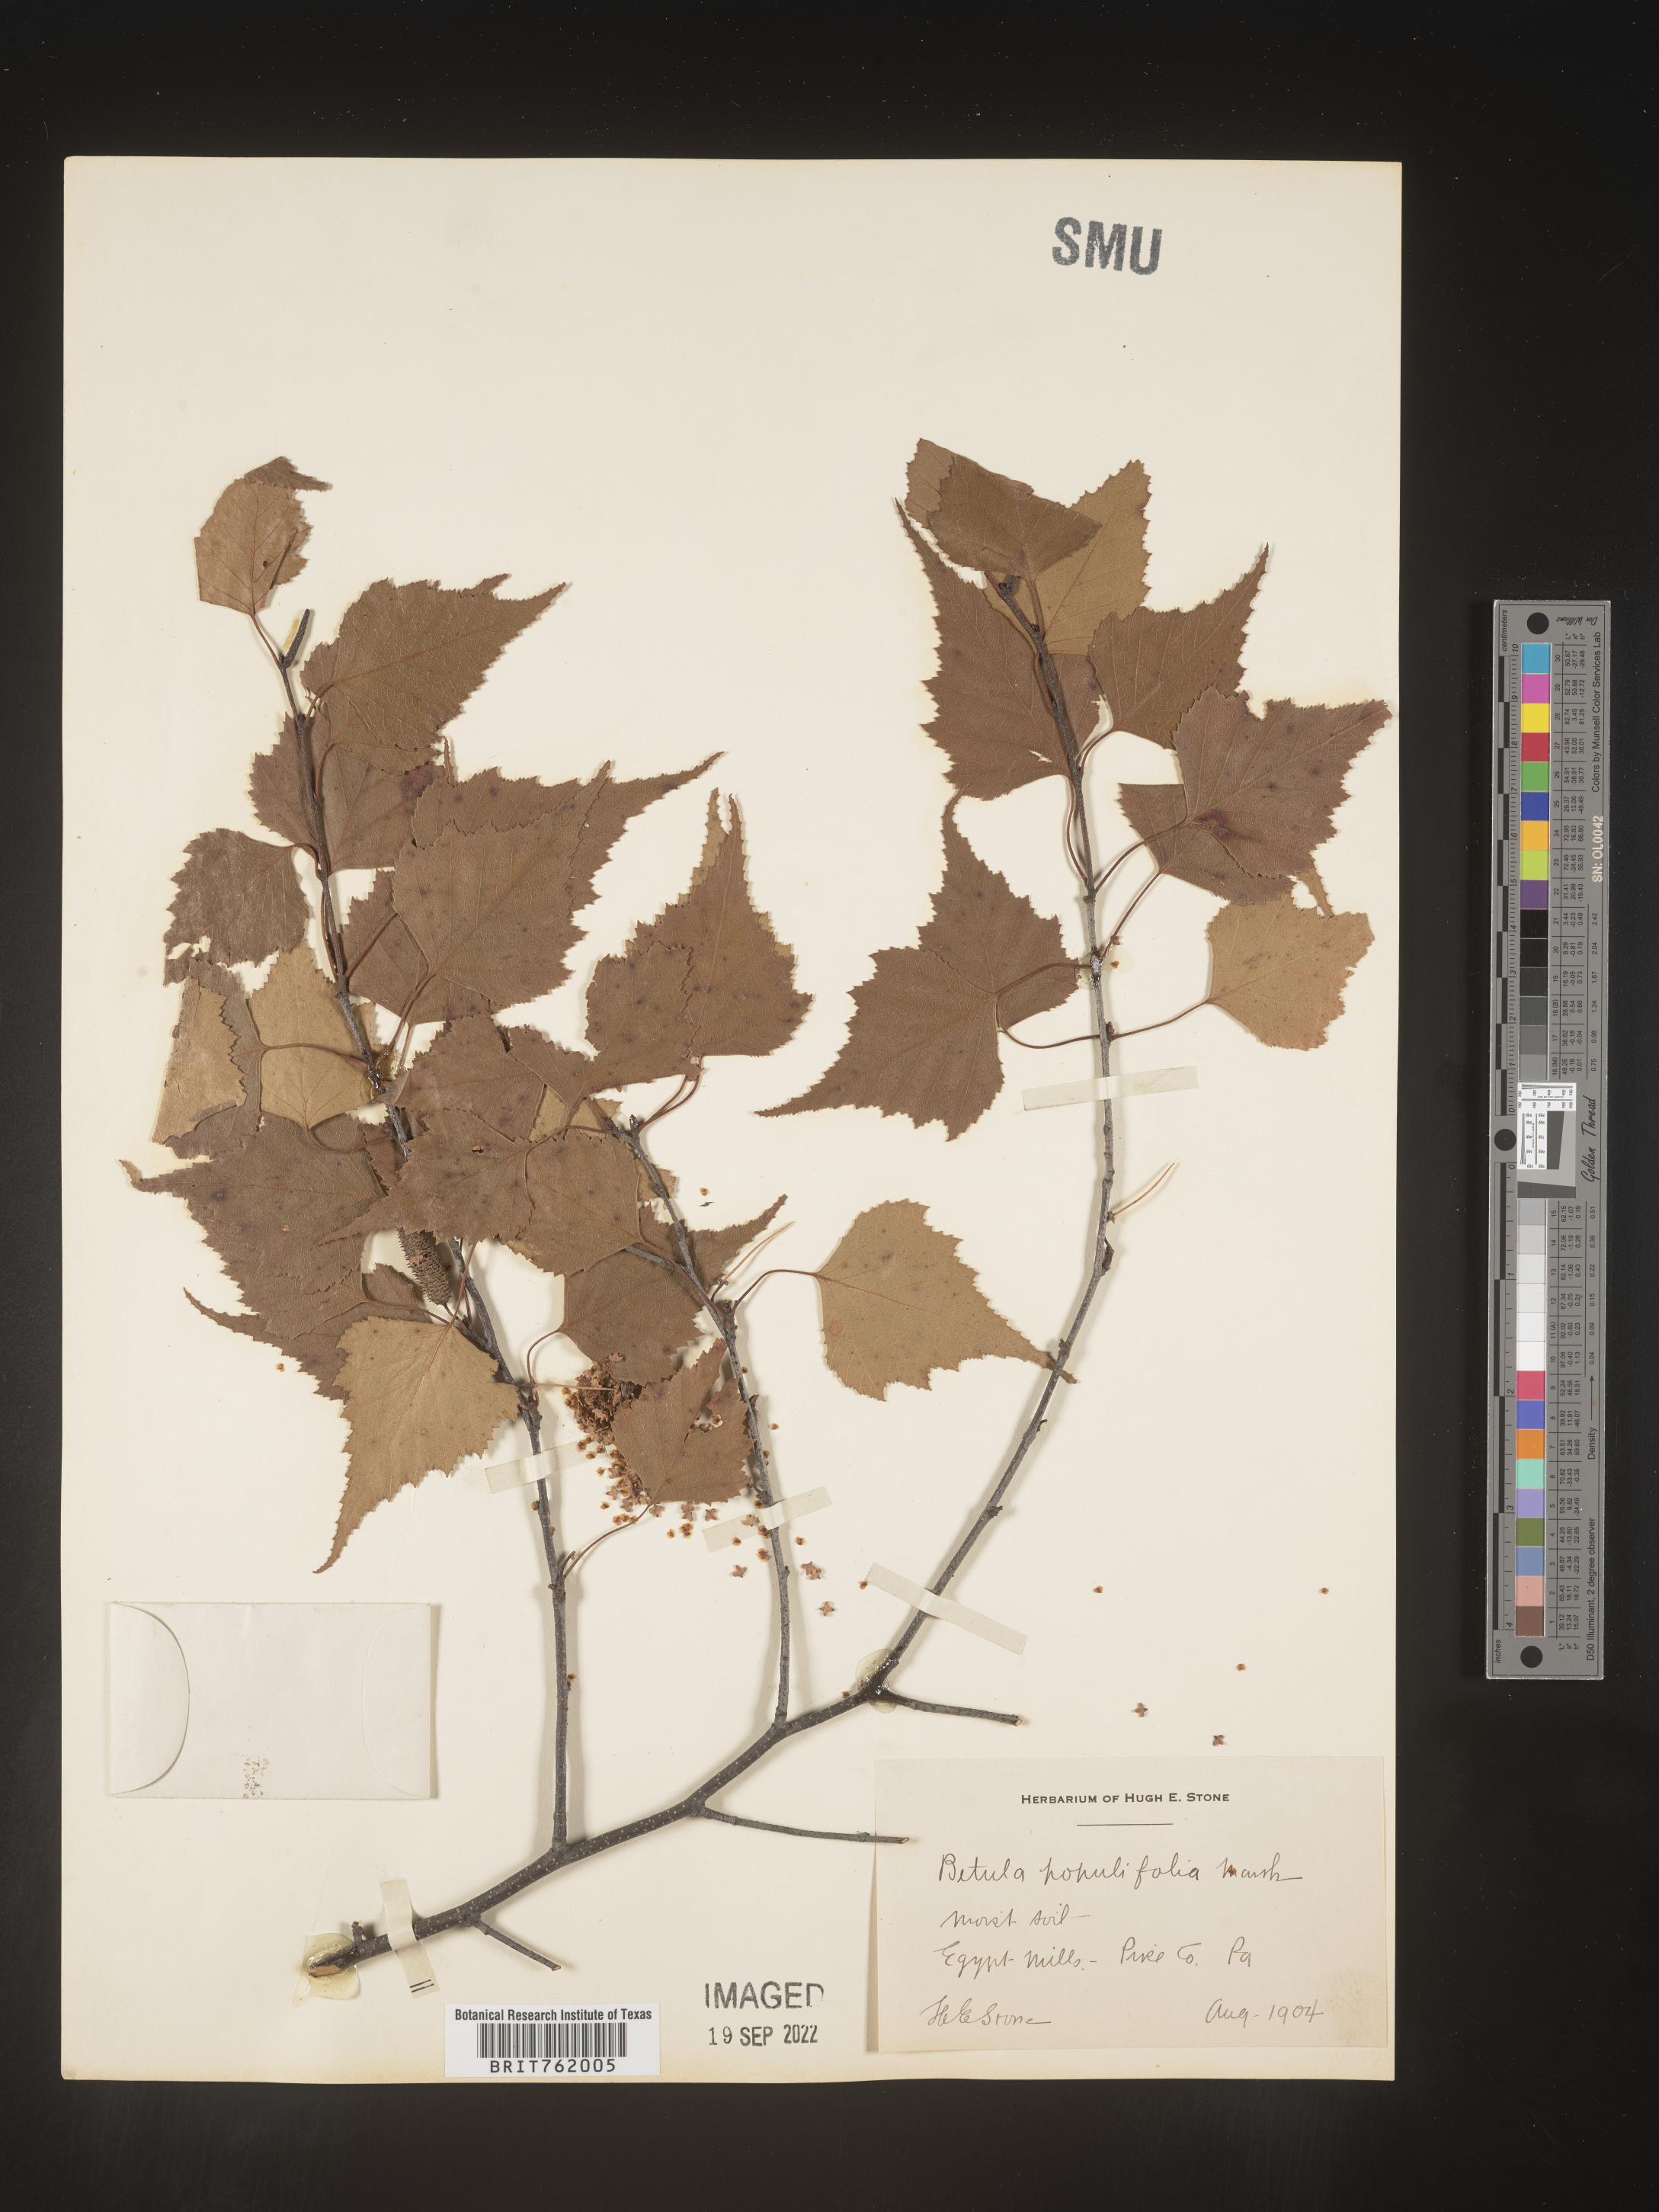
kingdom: Plantae
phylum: Tracheophyta
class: Magnoliopsida
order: Fagales
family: Betulaceae
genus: Betula
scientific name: Betula populifolia
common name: Fire birch
